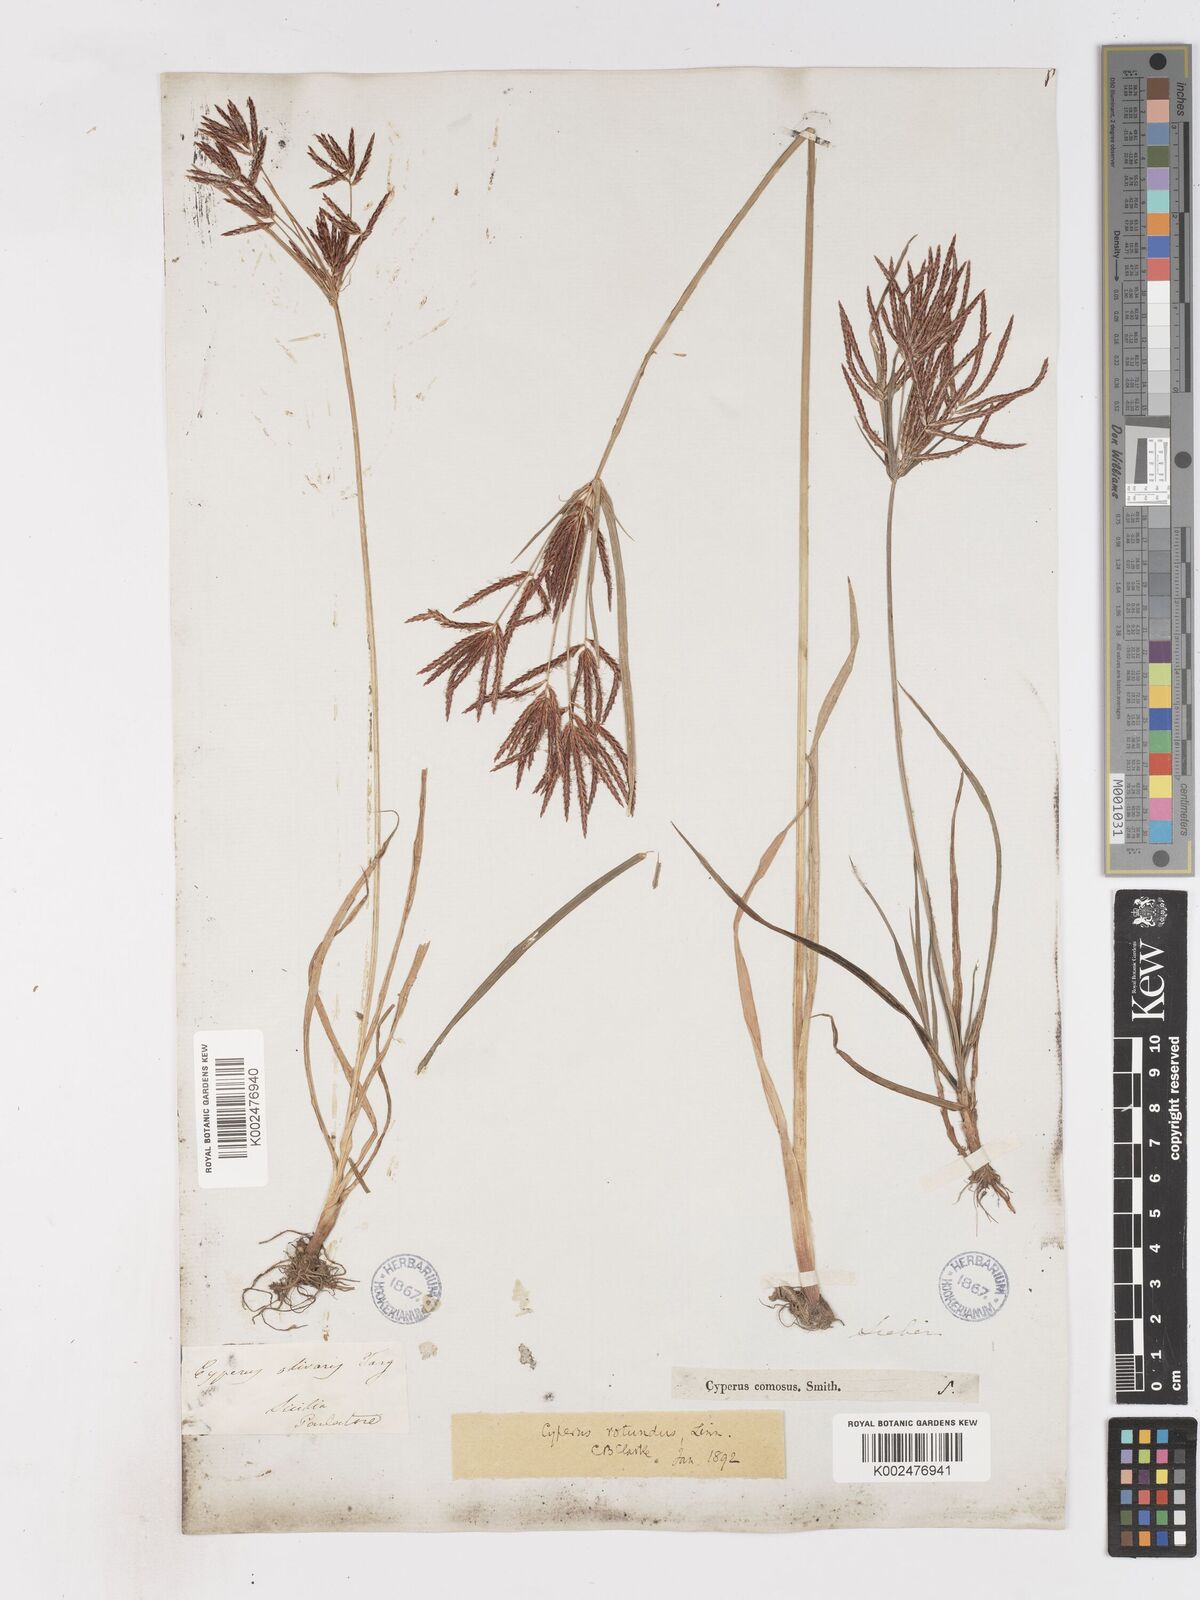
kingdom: Plantae
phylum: Tracheophyta
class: Liliopsida
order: Poales
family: Cyperaceae
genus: Cyperus
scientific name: Cyperus rotundus
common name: Nutgrass
